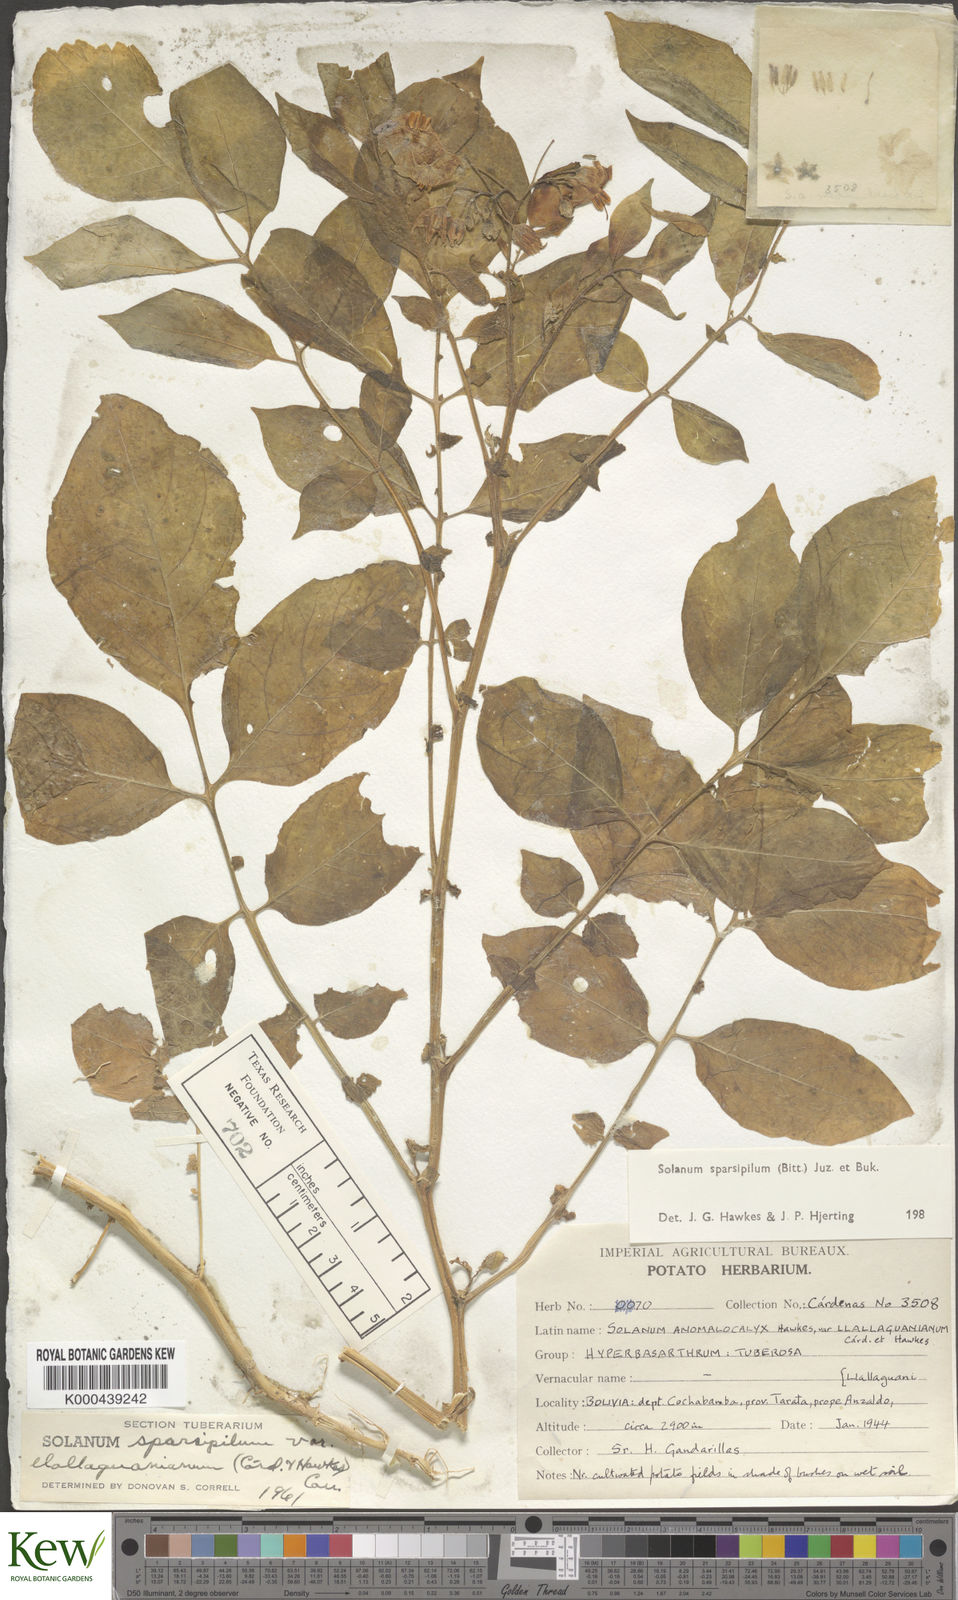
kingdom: Plantae
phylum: Tracheophyta
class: Magnoliopsida
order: Solanales
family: Solanaceae
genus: Solanum
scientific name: Solanum brevicaule
